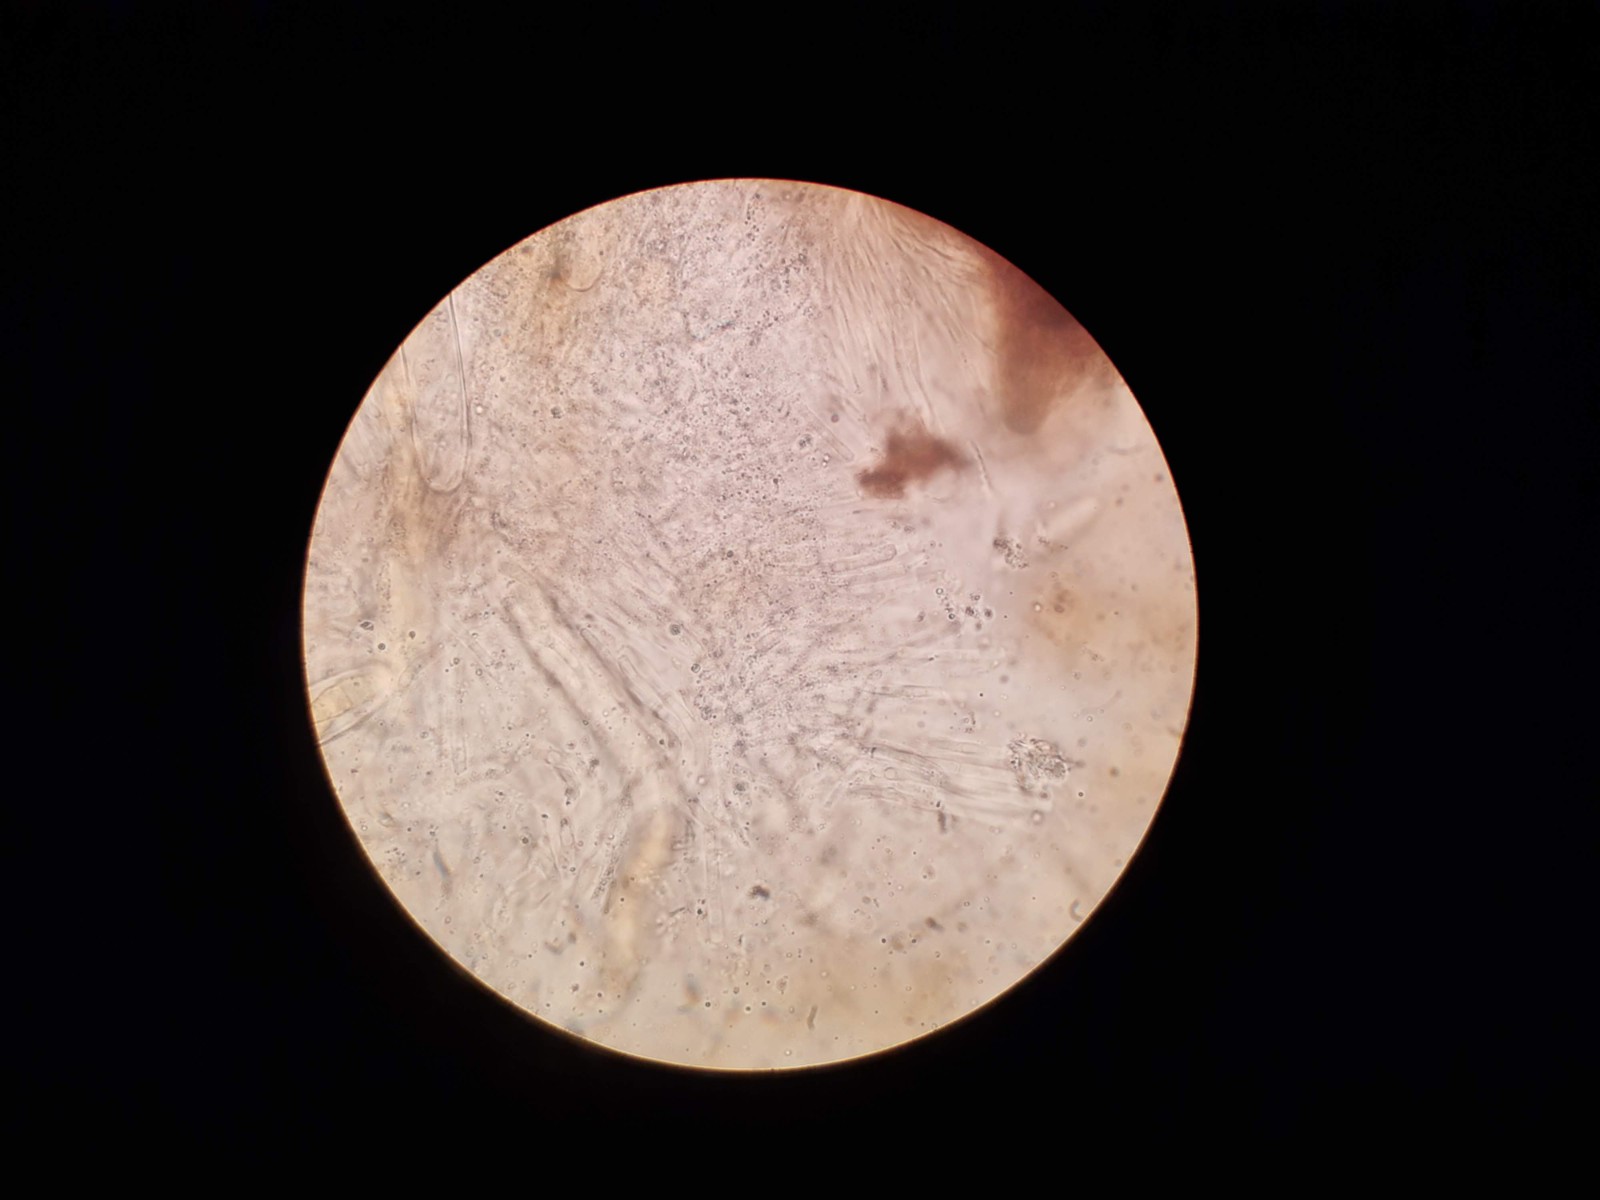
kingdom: Fungi
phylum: Ascomycota
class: Dothideomycetes
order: Pleosporales
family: Melanommataceae
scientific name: Melanommataceae
